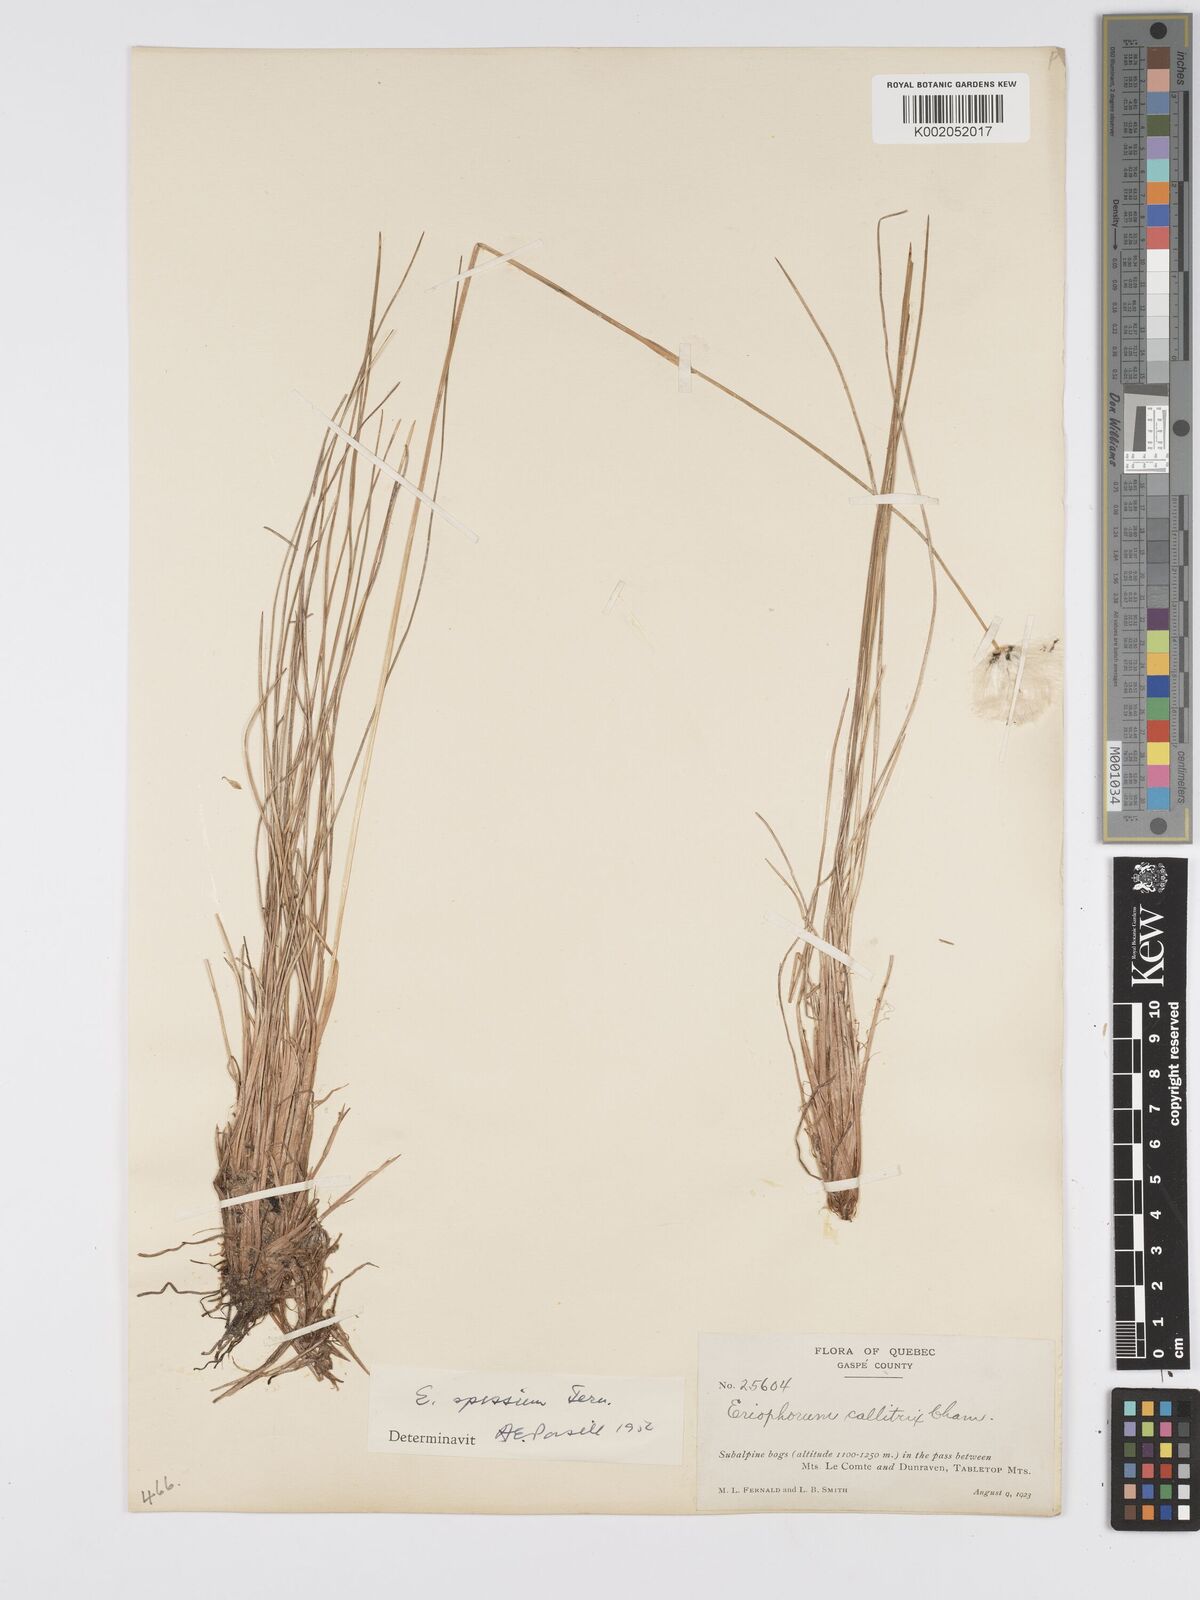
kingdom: Plantae
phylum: Tracheophyta
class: Liliopsida
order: Poales
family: Cyperaceae
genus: Eriophorum
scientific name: Eriophorum vaginatum
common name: Hare's-tail cottongrass
